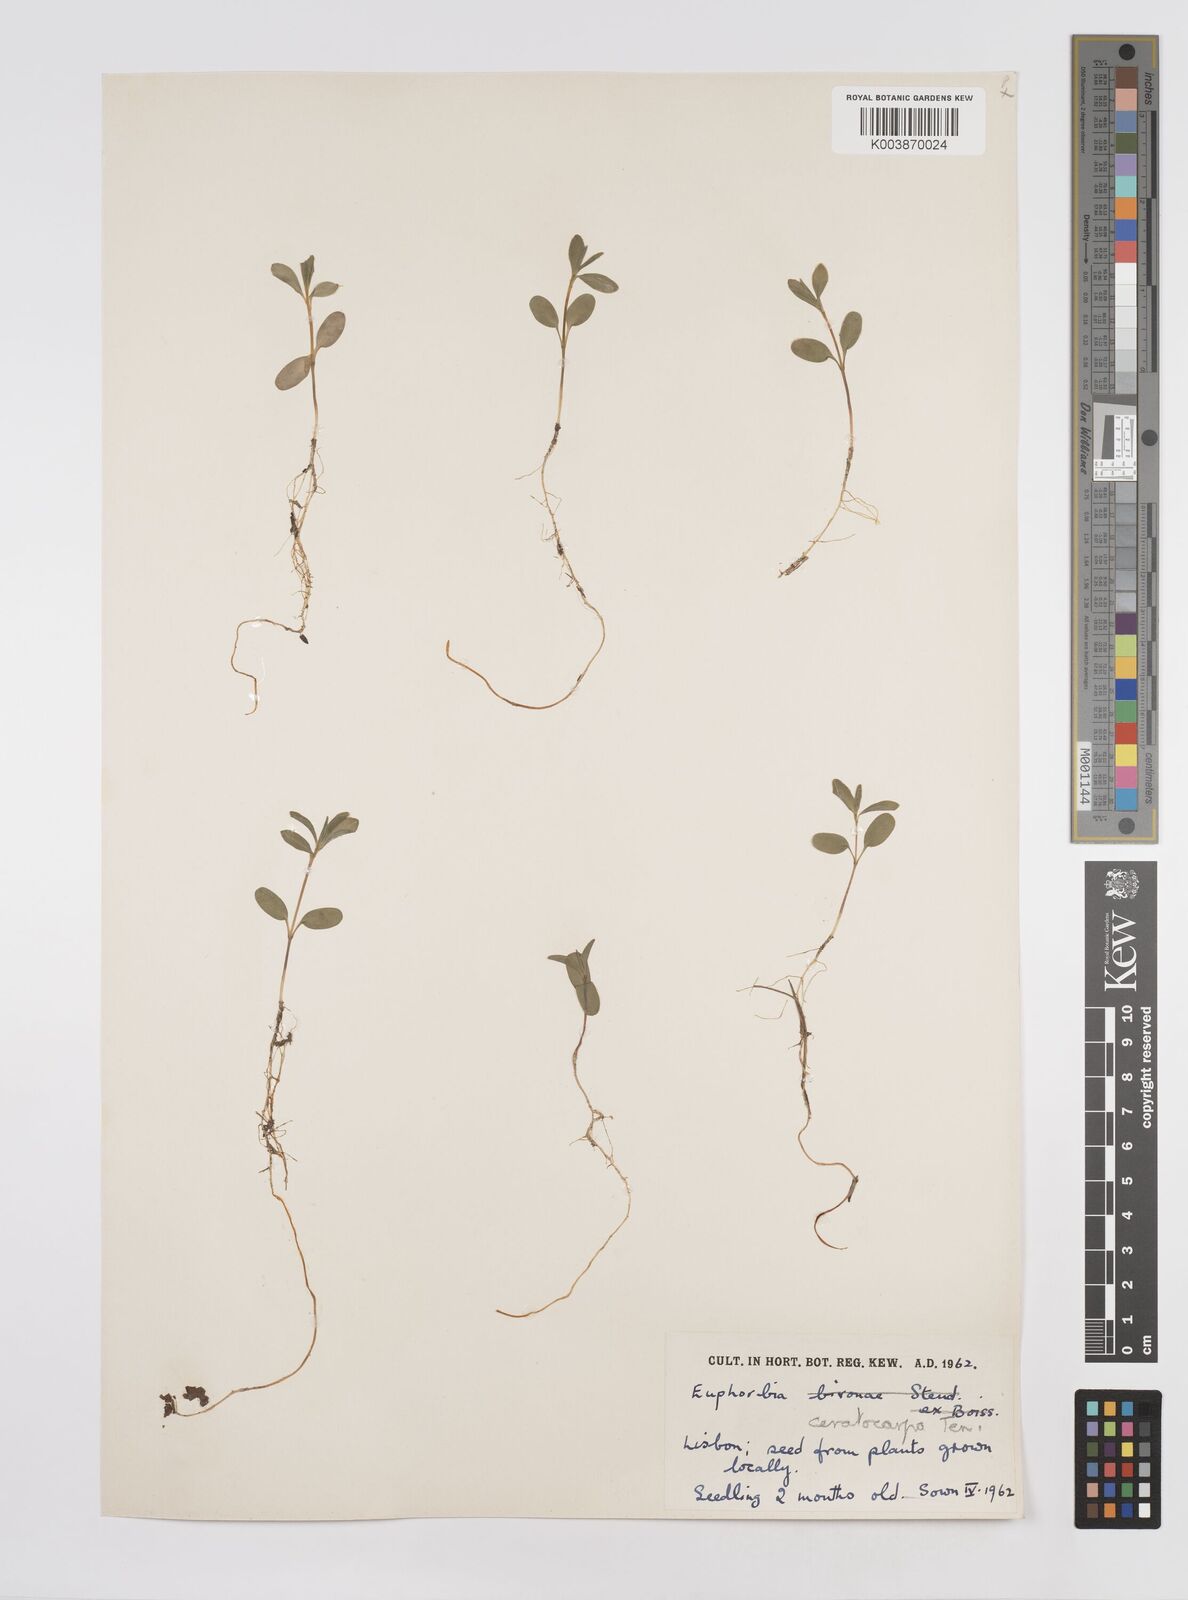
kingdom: Plantae
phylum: Tracheophyta
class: Magnoliopsida
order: Malpighiales
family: Euphorbiaceae
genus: Euphorbia
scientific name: Euphorbia ceratocarpa
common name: Horned spurge
